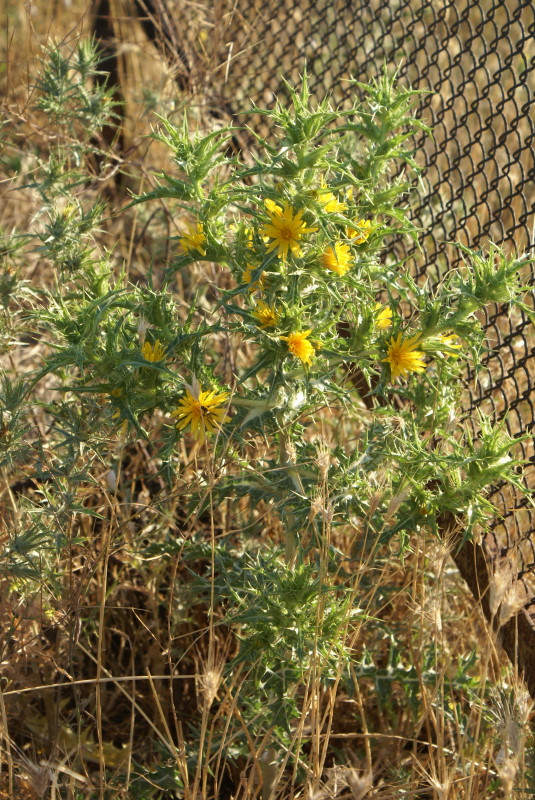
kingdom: Plantae
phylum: Tracheophyta
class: Magnoliopsida
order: Asterales
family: Asteraceae
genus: Carthamus
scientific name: Carthamus lanatus
